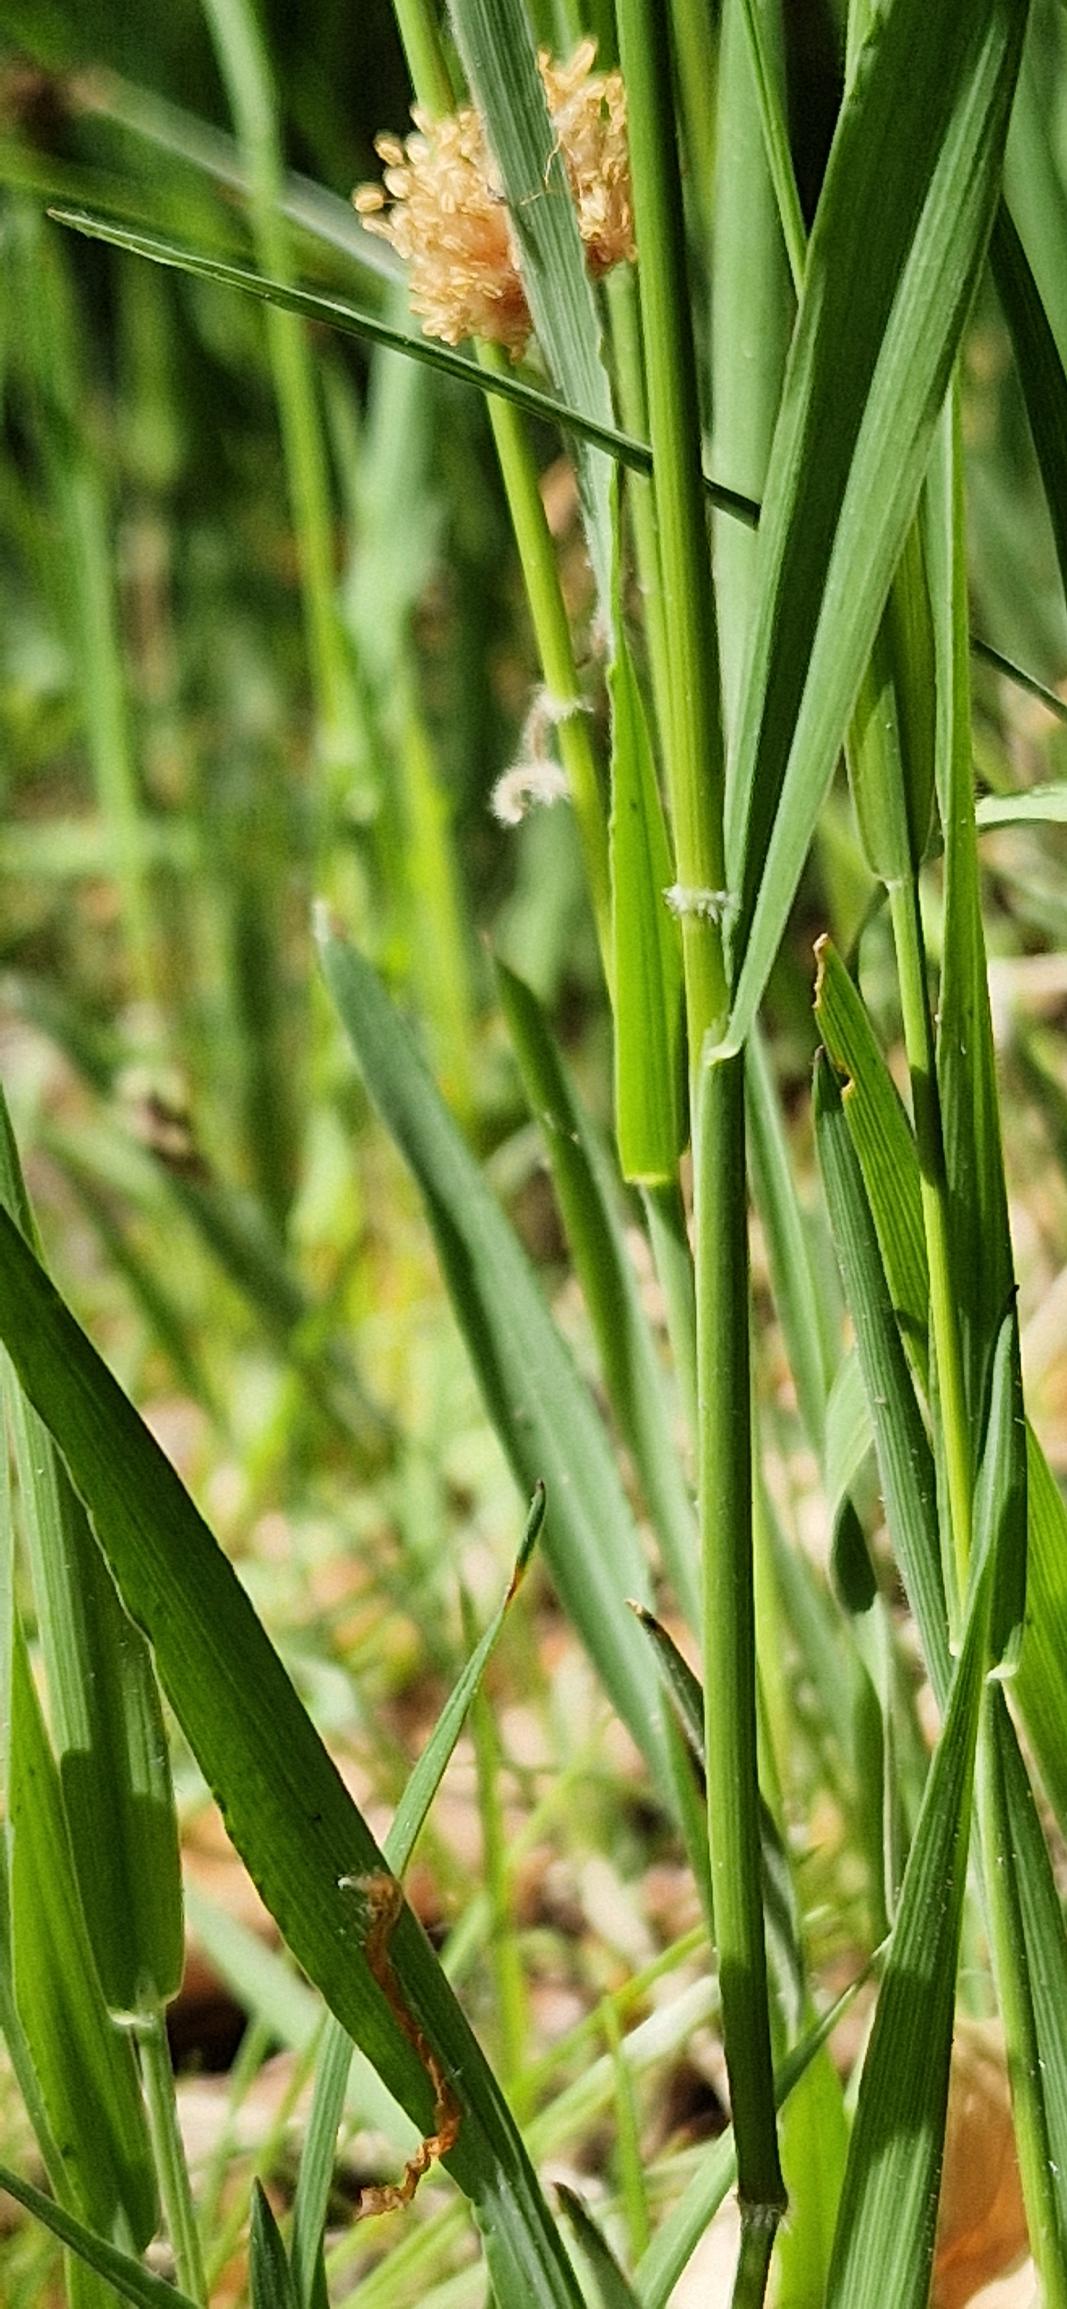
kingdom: Plantae
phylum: Tracheophyta
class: Liliopsida
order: Poales
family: Poaceae
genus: Holcus
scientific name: Holcus mollis
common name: Krybende hestegræs
